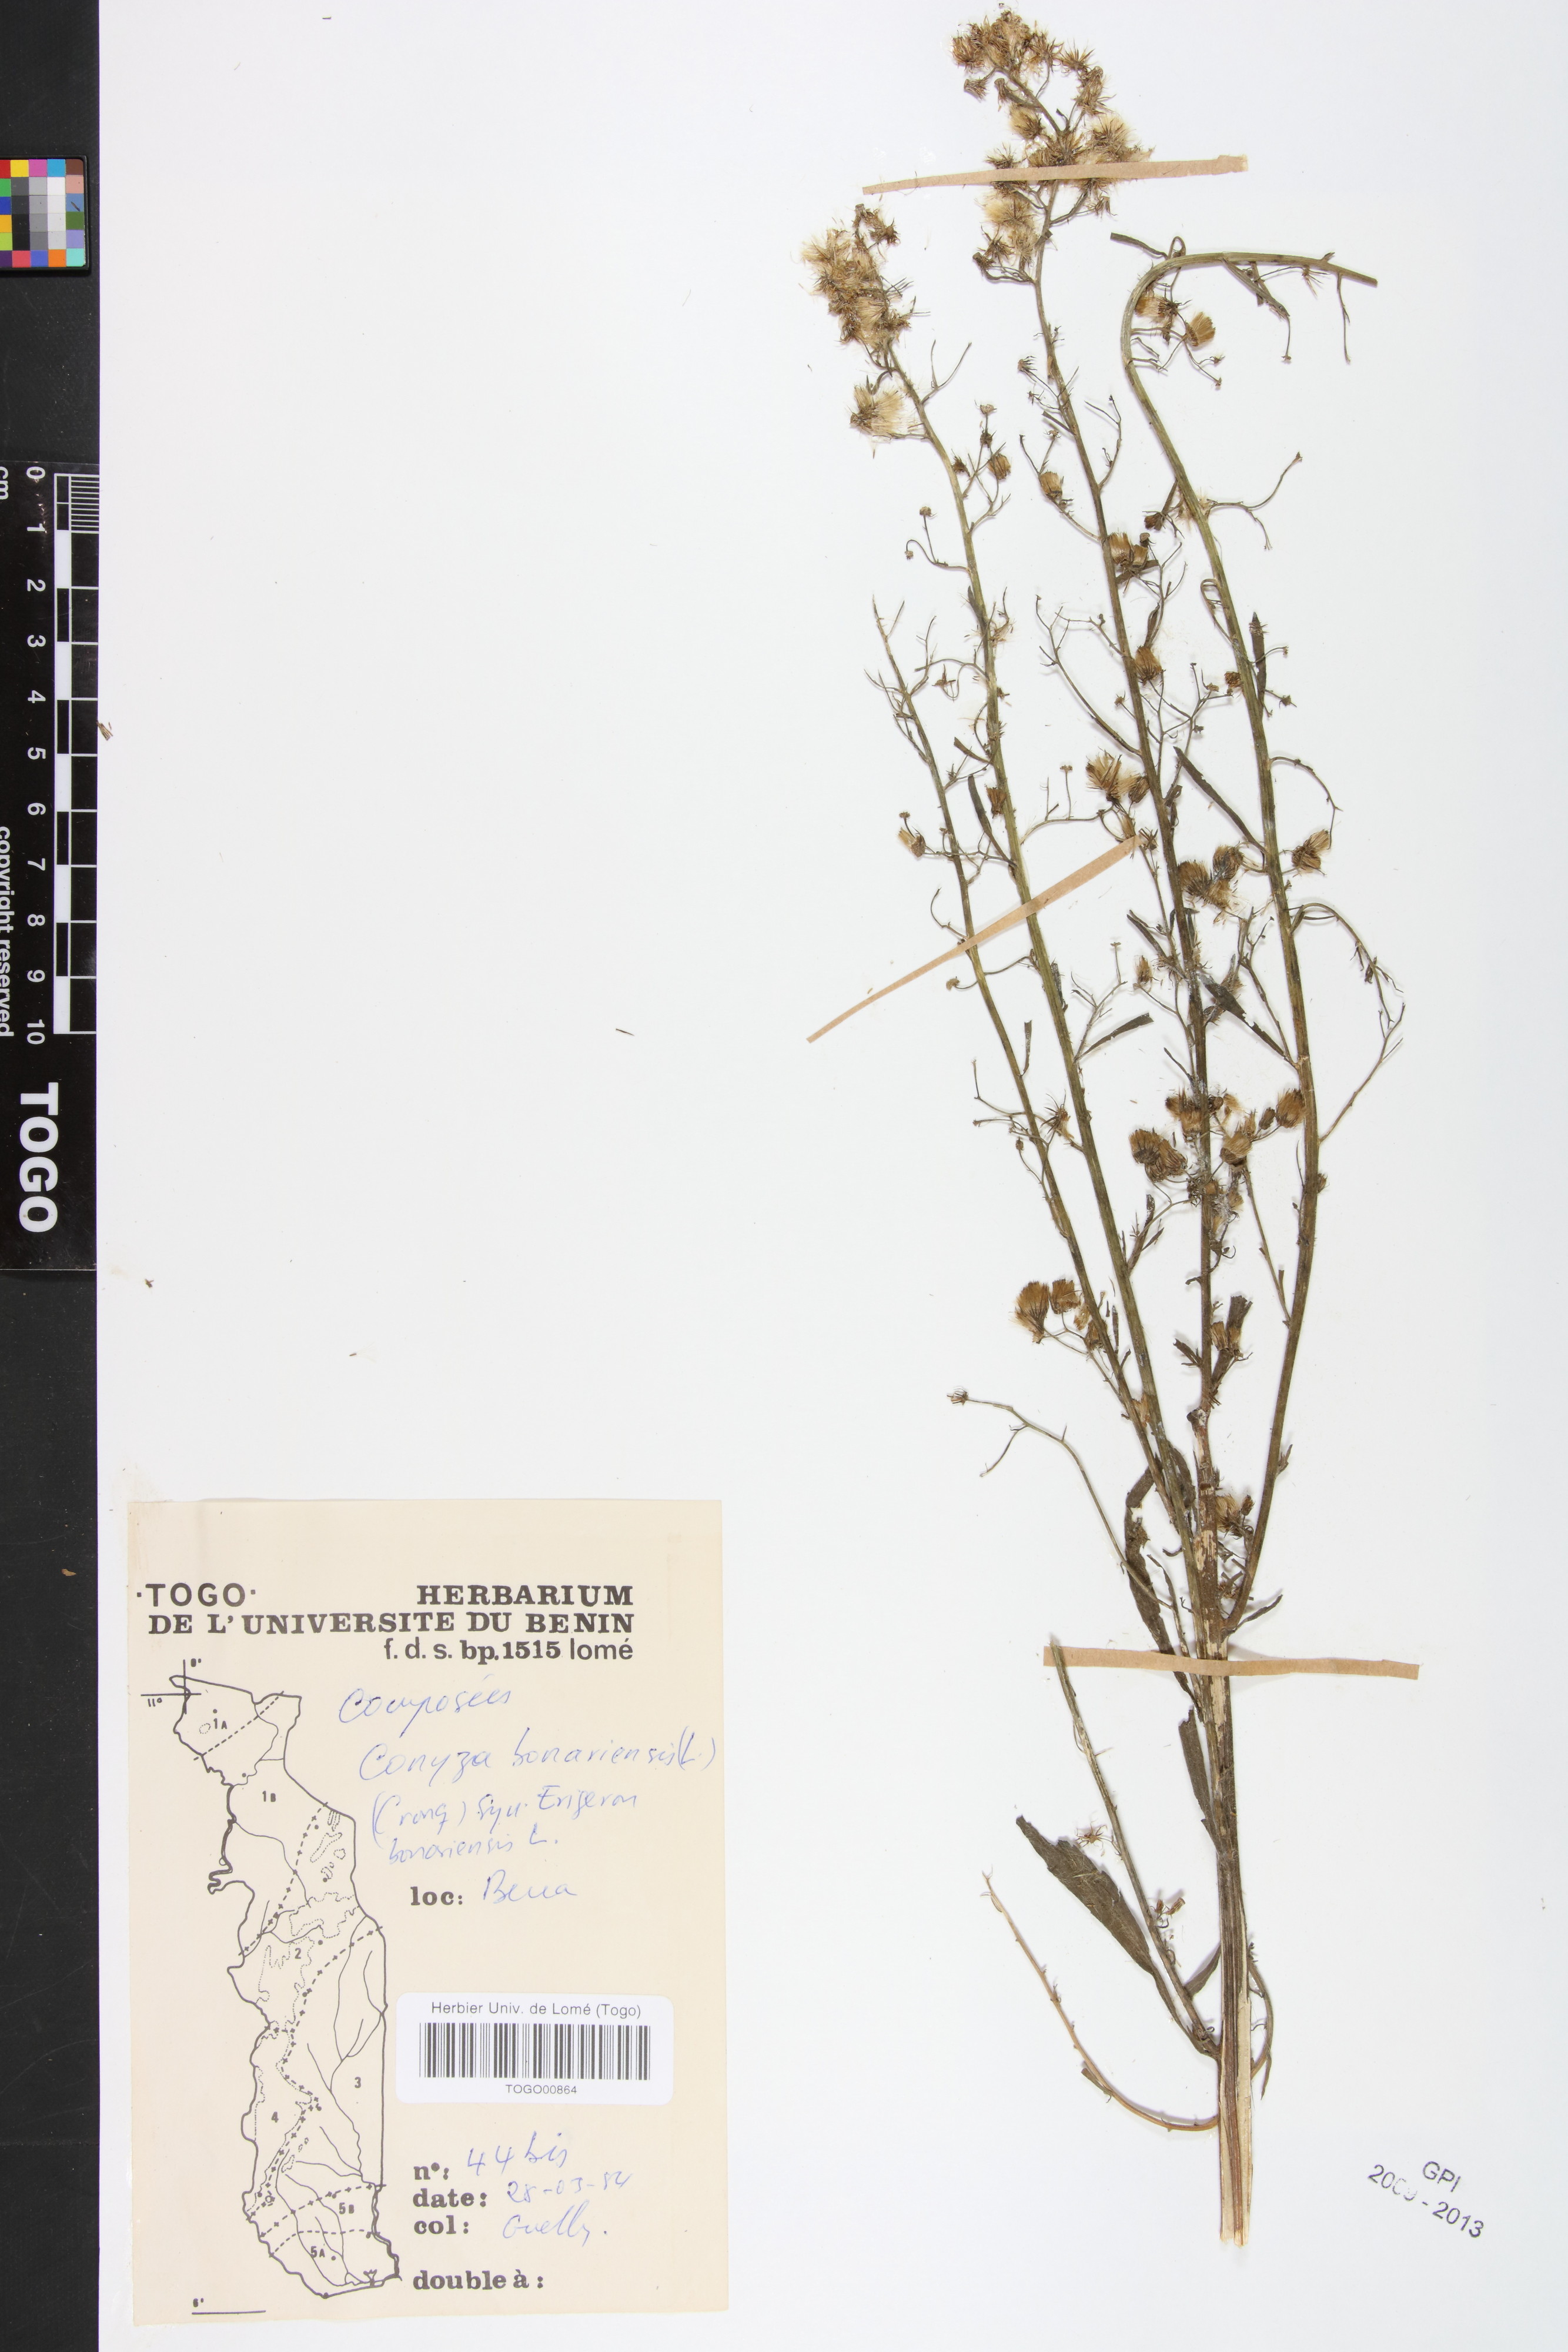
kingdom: Plantae
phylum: Tracheophyta
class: Magnoliopsida
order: Asterales
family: Asteraceae
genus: Erigeron
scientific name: Erigeron bonariensis
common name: Argentine fleabane
